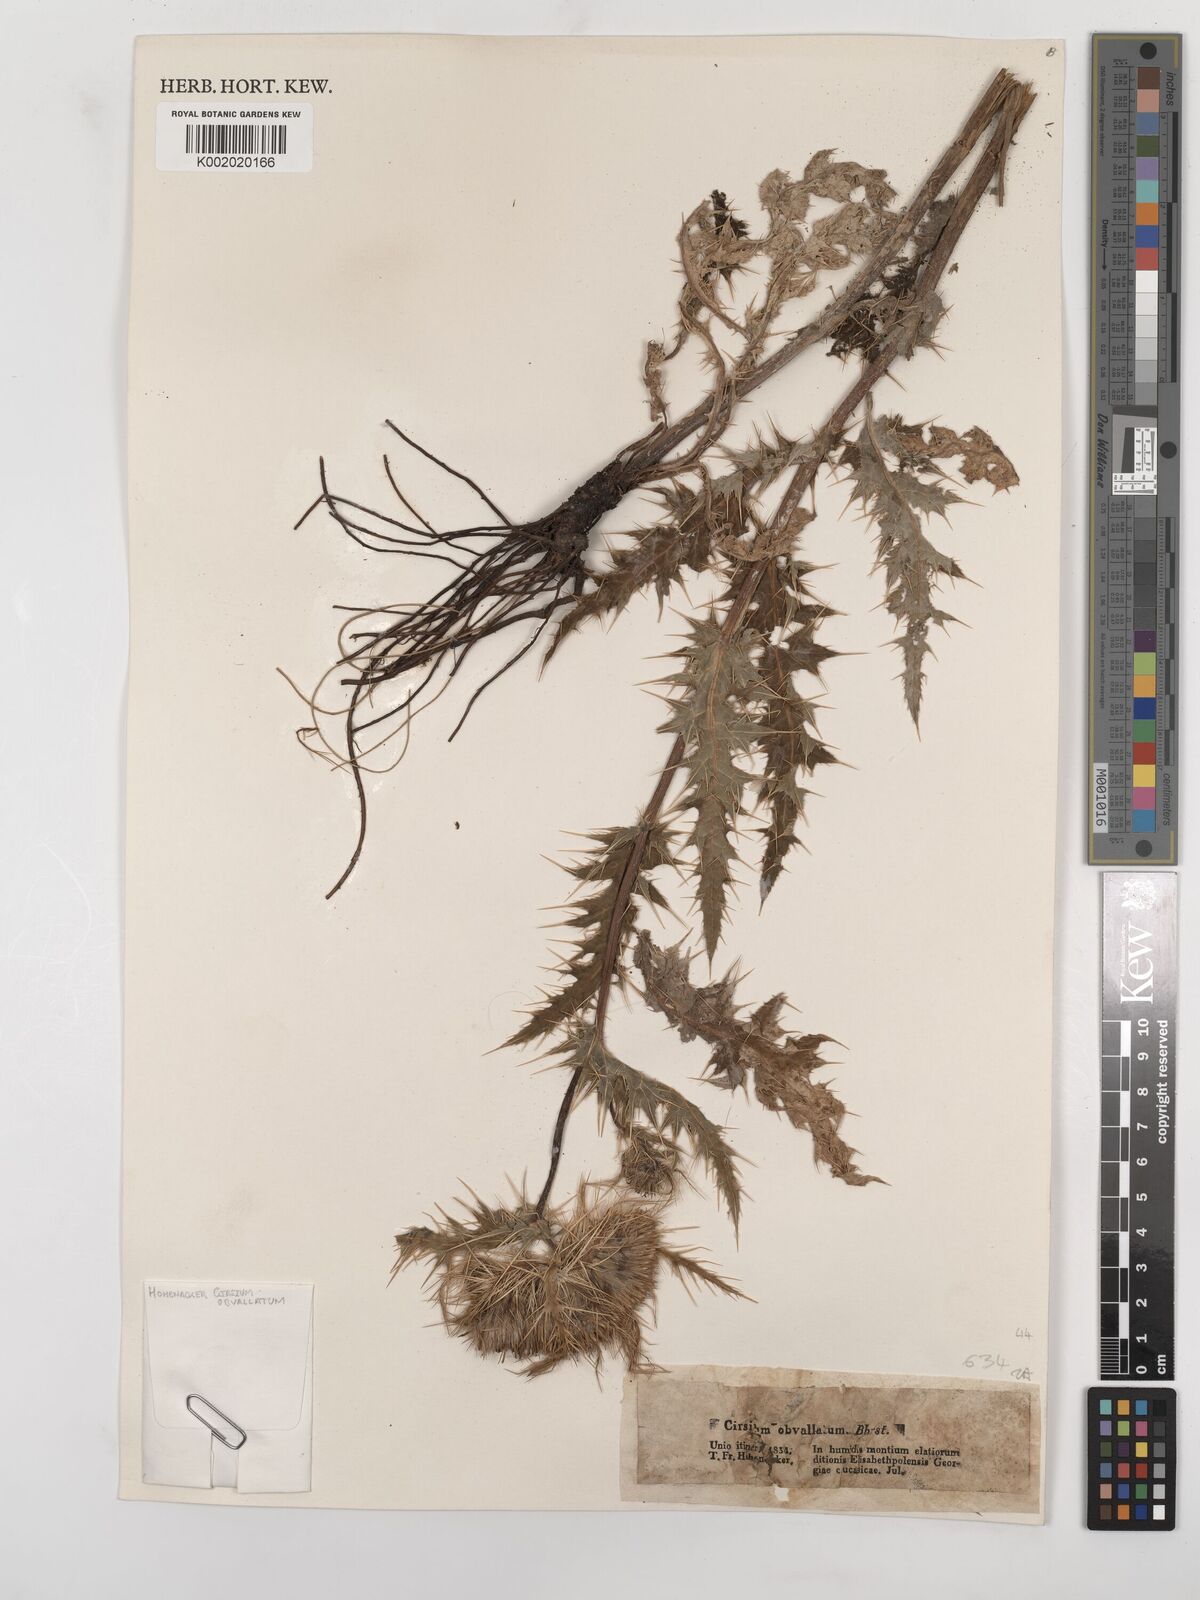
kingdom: Plantae
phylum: Tracheophyta
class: Magnoliopsida
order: Asterales
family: Asteraceae
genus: Cirsium
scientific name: Cirsium obvallatum
